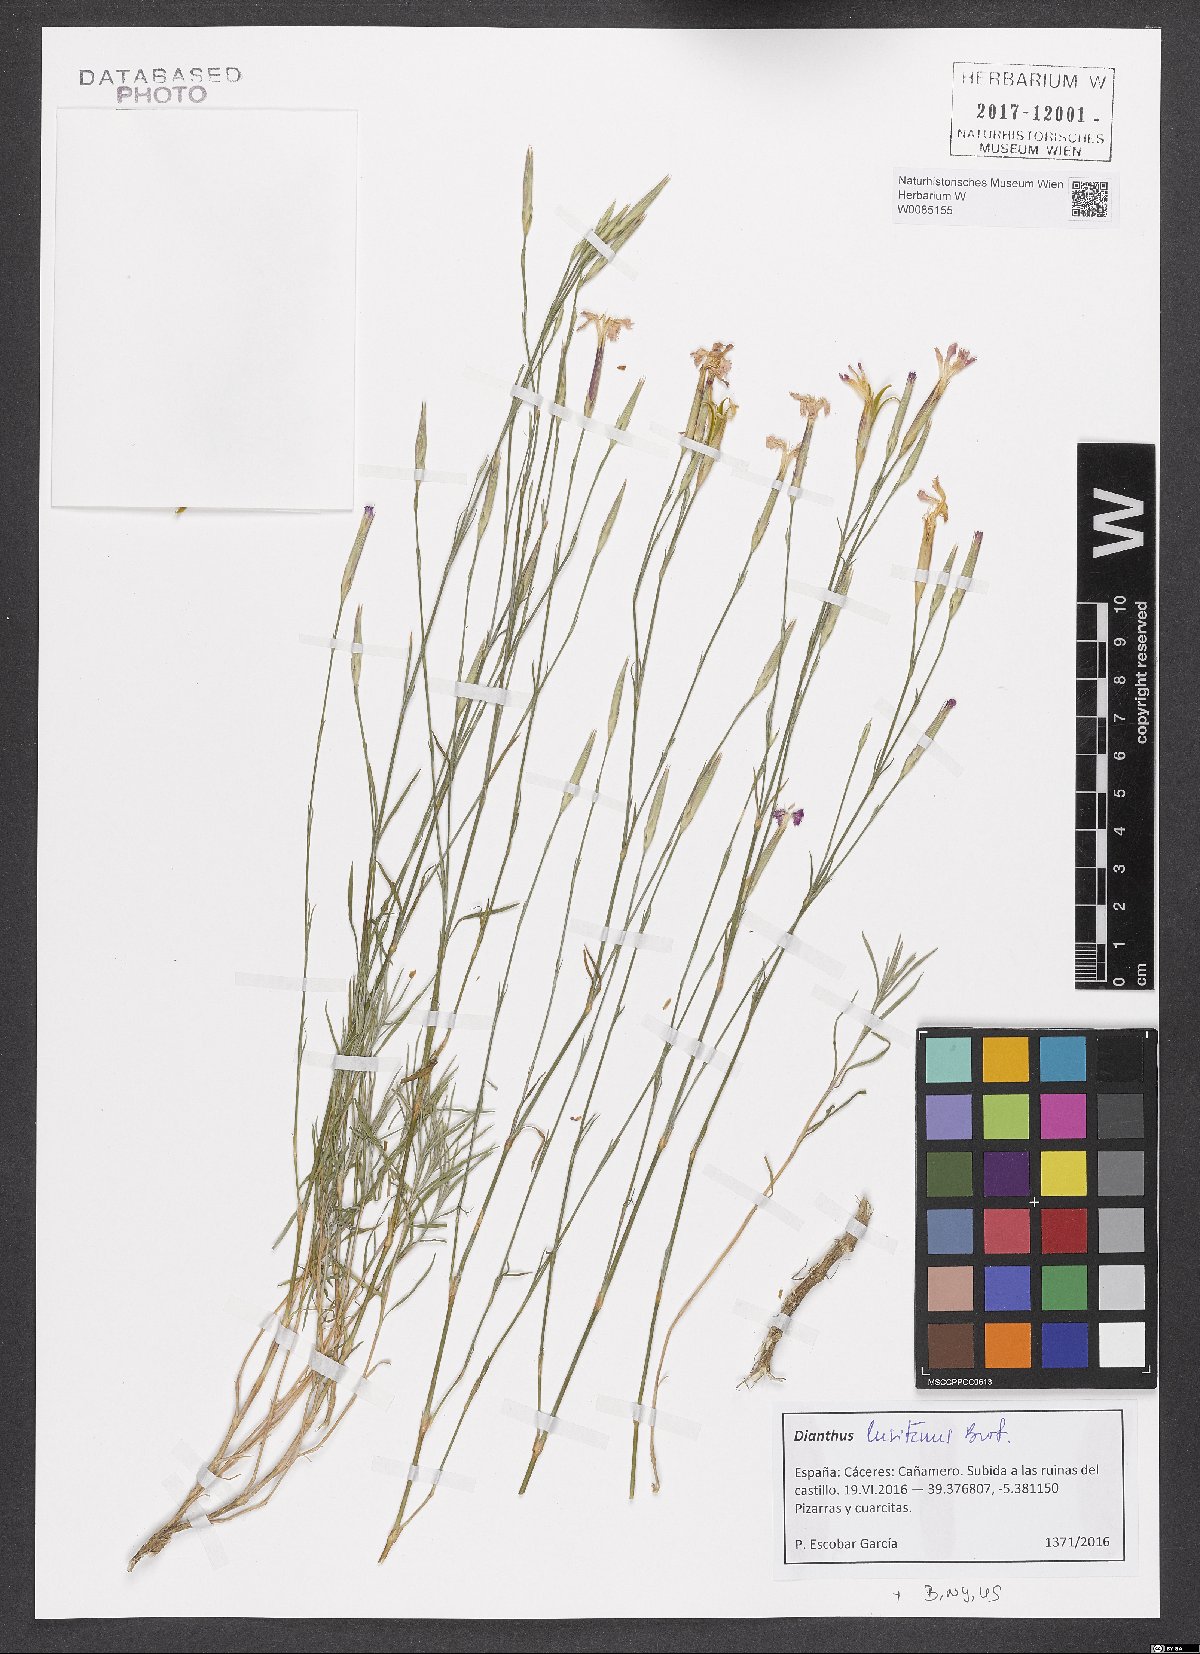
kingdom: Plantae
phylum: Tracheophyta
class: Magnoliopsida
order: Caryophyllales
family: Caryophyllaceae
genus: Dianthus
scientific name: Dianthus lusitanus
